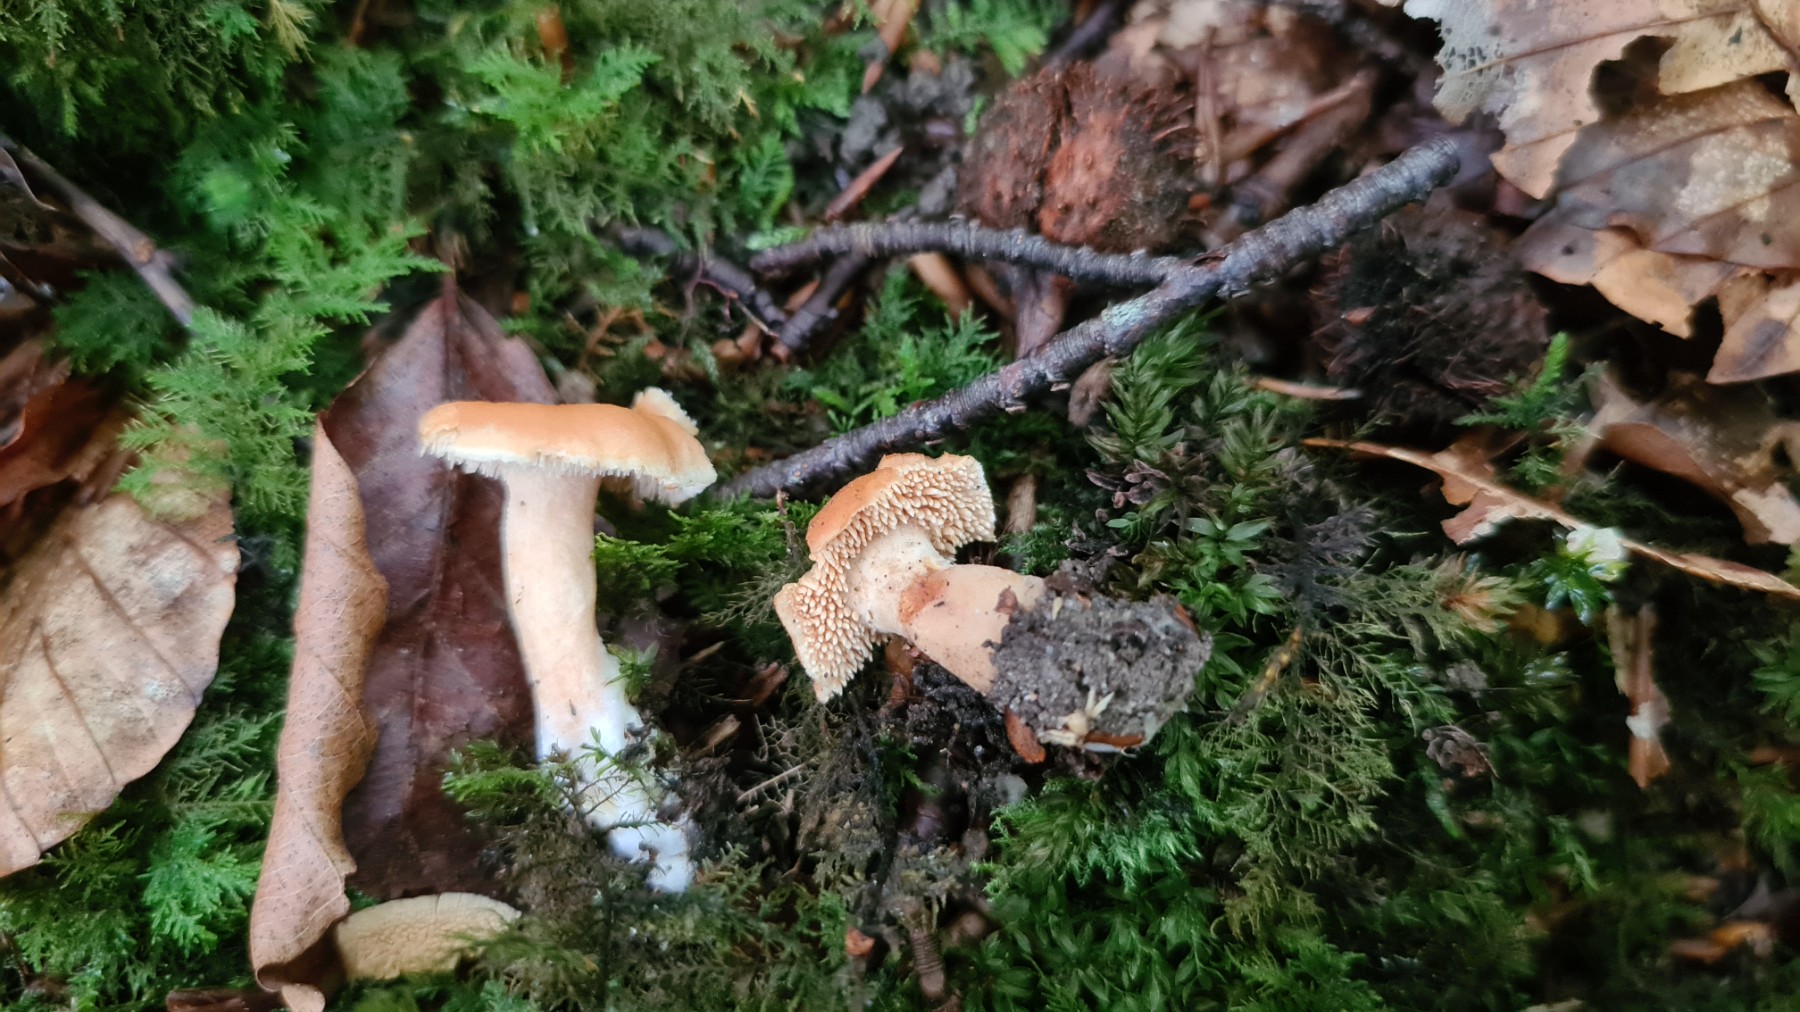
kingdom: Fungi
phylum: Basidiomycota
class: Agaricomycetes
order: Cantharellales
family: Hydnaceae
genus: Hydnum
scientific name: Hydnum umbilicatum
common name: navle-pigsvamp
